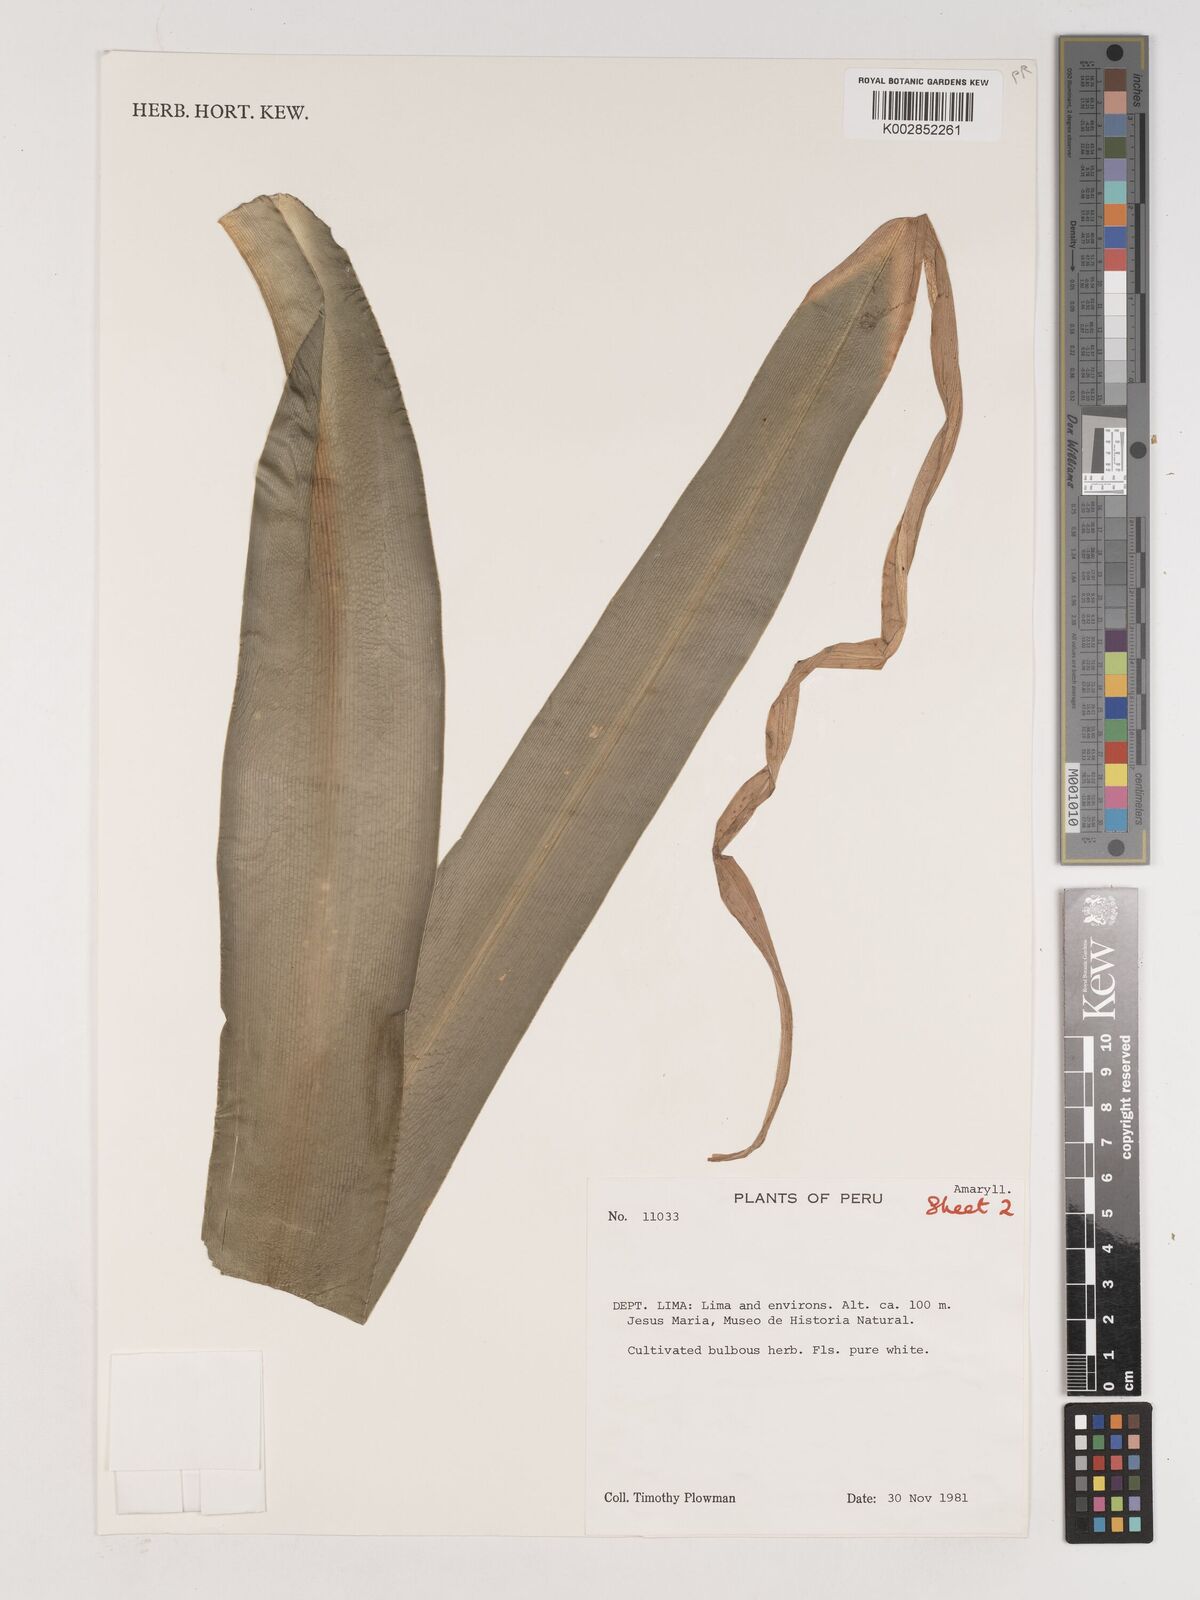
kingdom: Plantae
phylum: Tracheophyta
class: Liliopsida
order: Asparagales
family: Amaryllidaceae
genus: Crinum
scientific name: Crinum moorei
